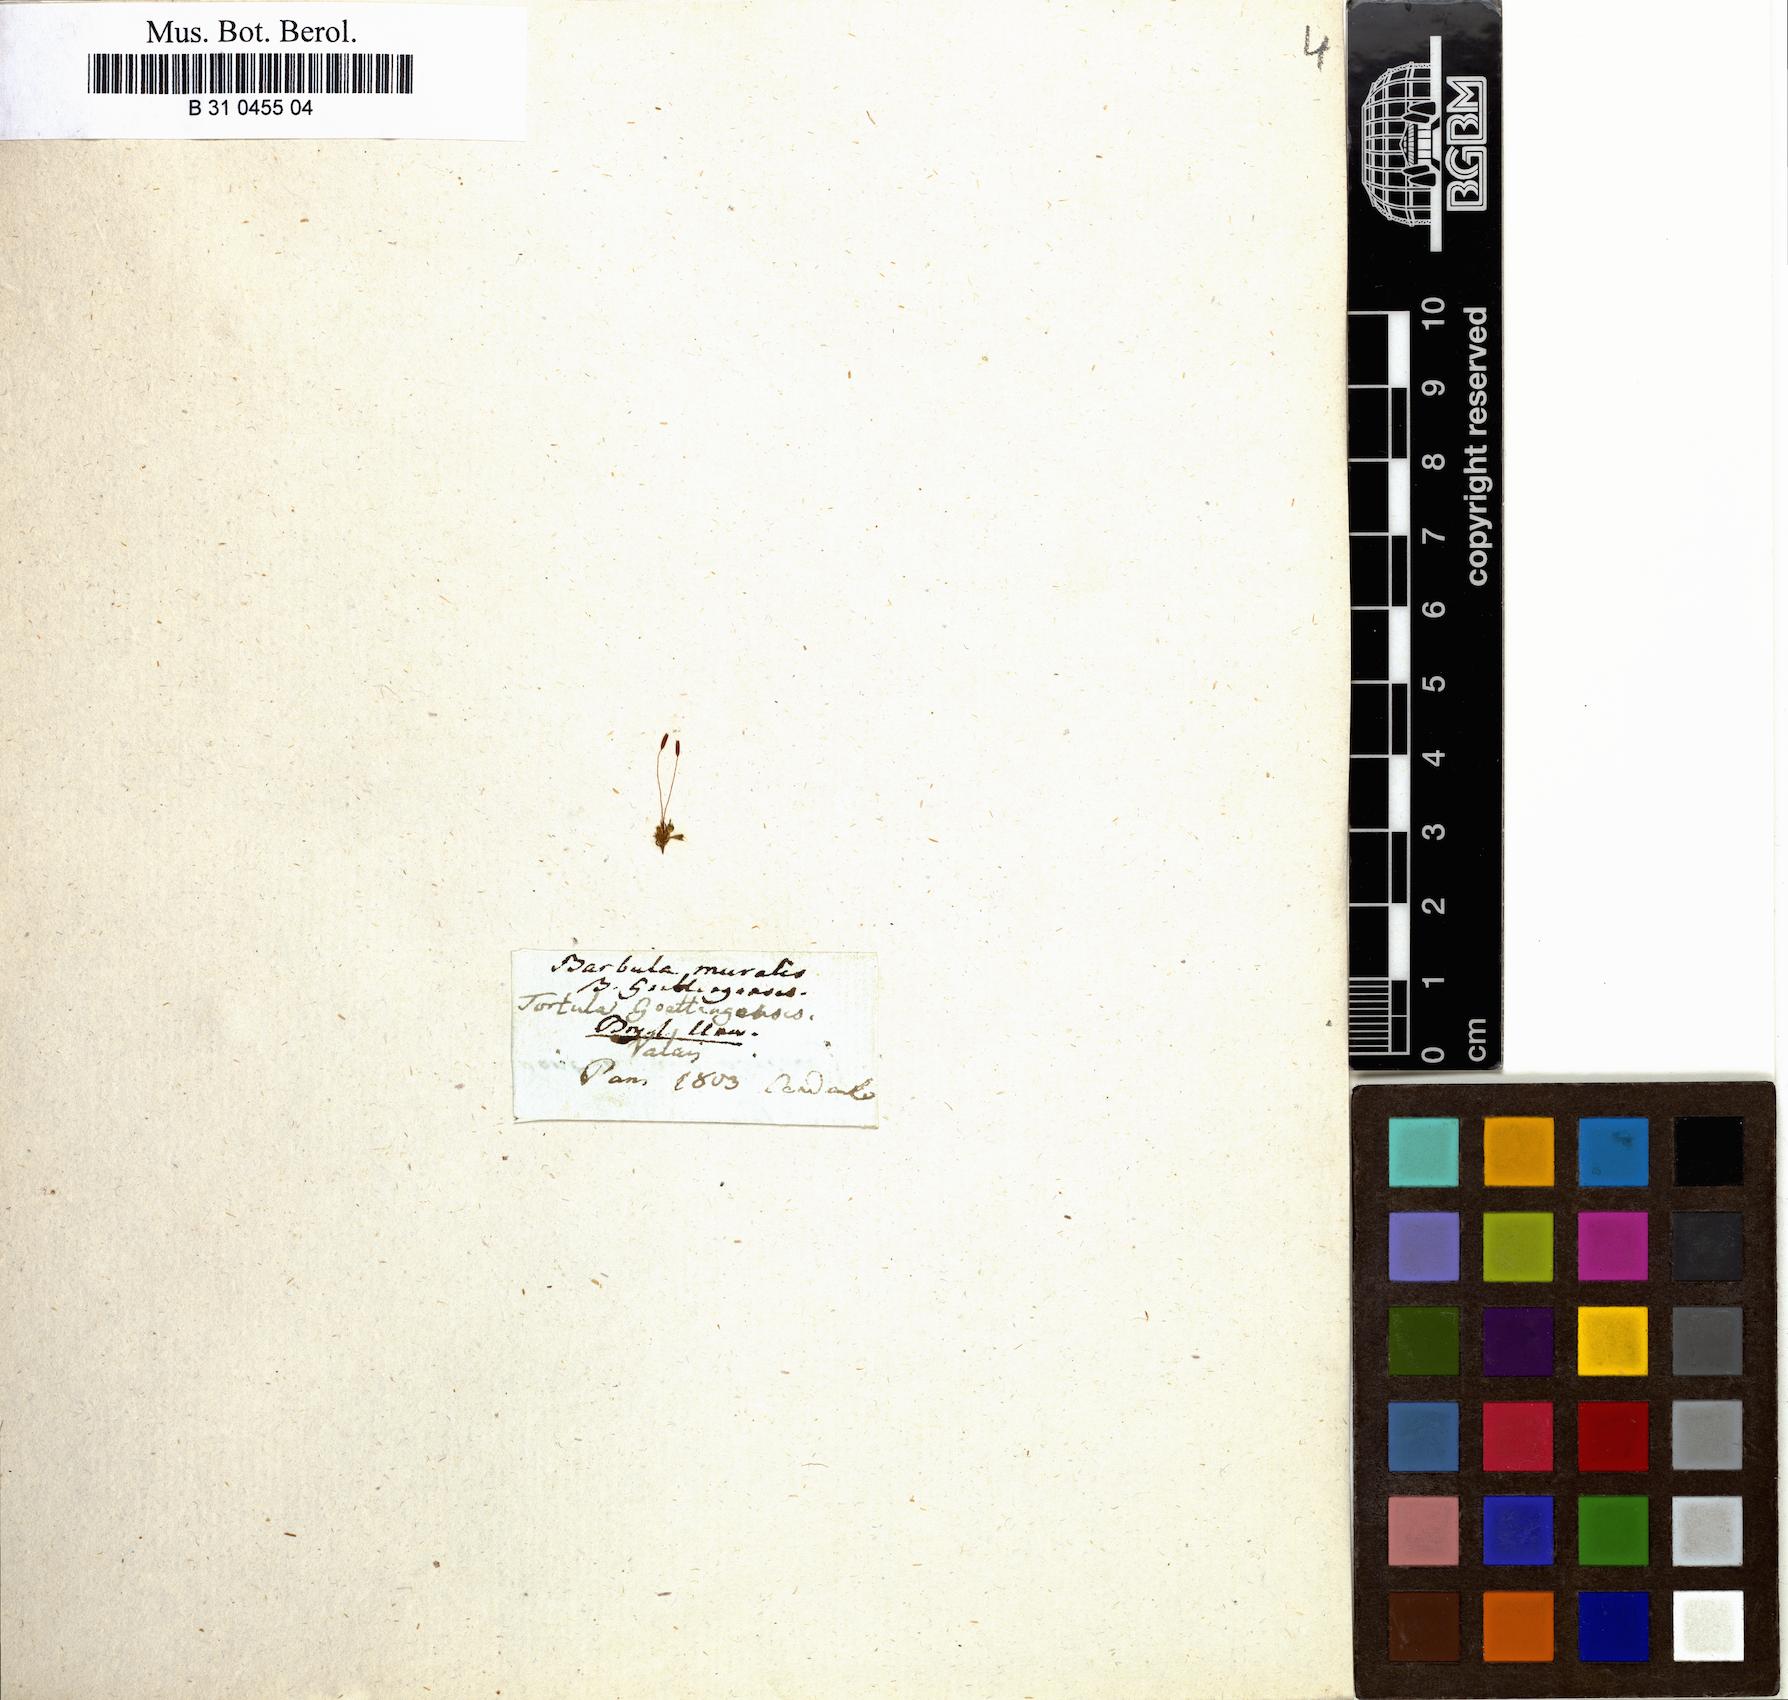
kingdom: Plantae
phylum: Bryophyta
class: Bryopsida
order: Pottiales
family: Pottiaceae
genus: Tortula
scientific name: Tortula muralis
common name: Wall screw-moss
